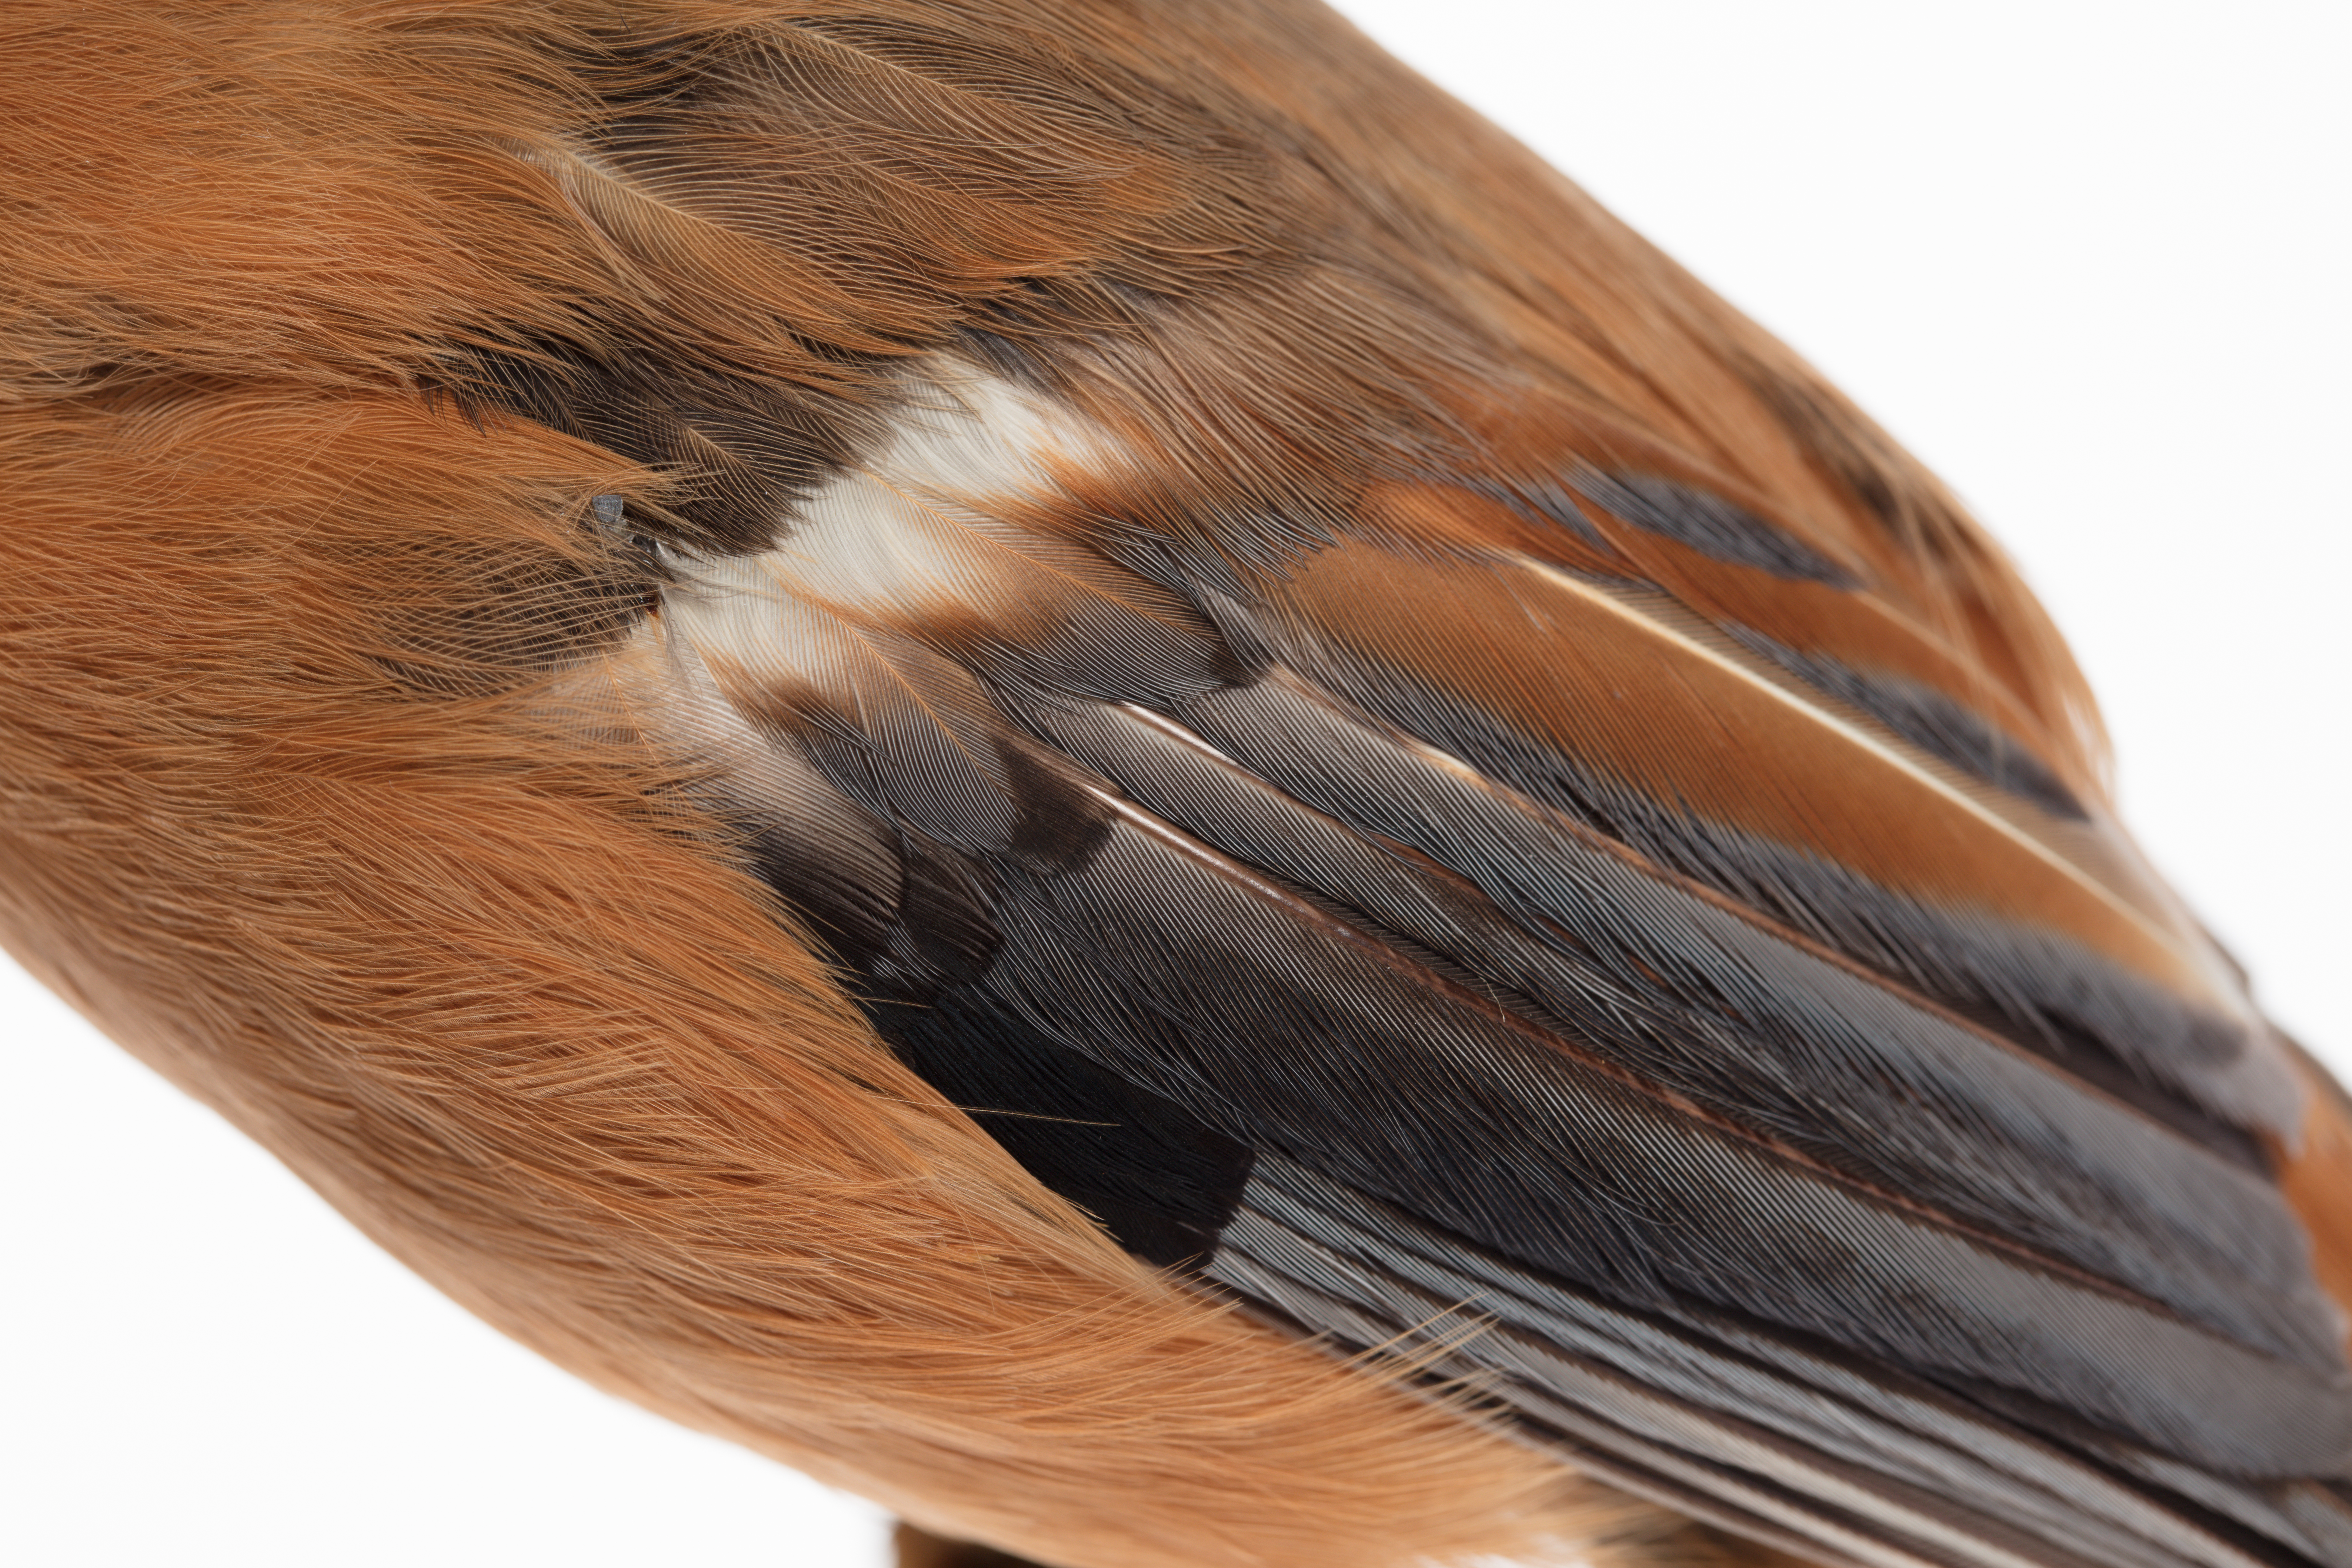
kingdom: Animalia
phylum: Chordata
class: Aves
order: Passeriformes
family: Leiothrichidae
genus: Heterophasia
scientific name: Heterophasia capistrata
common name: Rufous sibia
